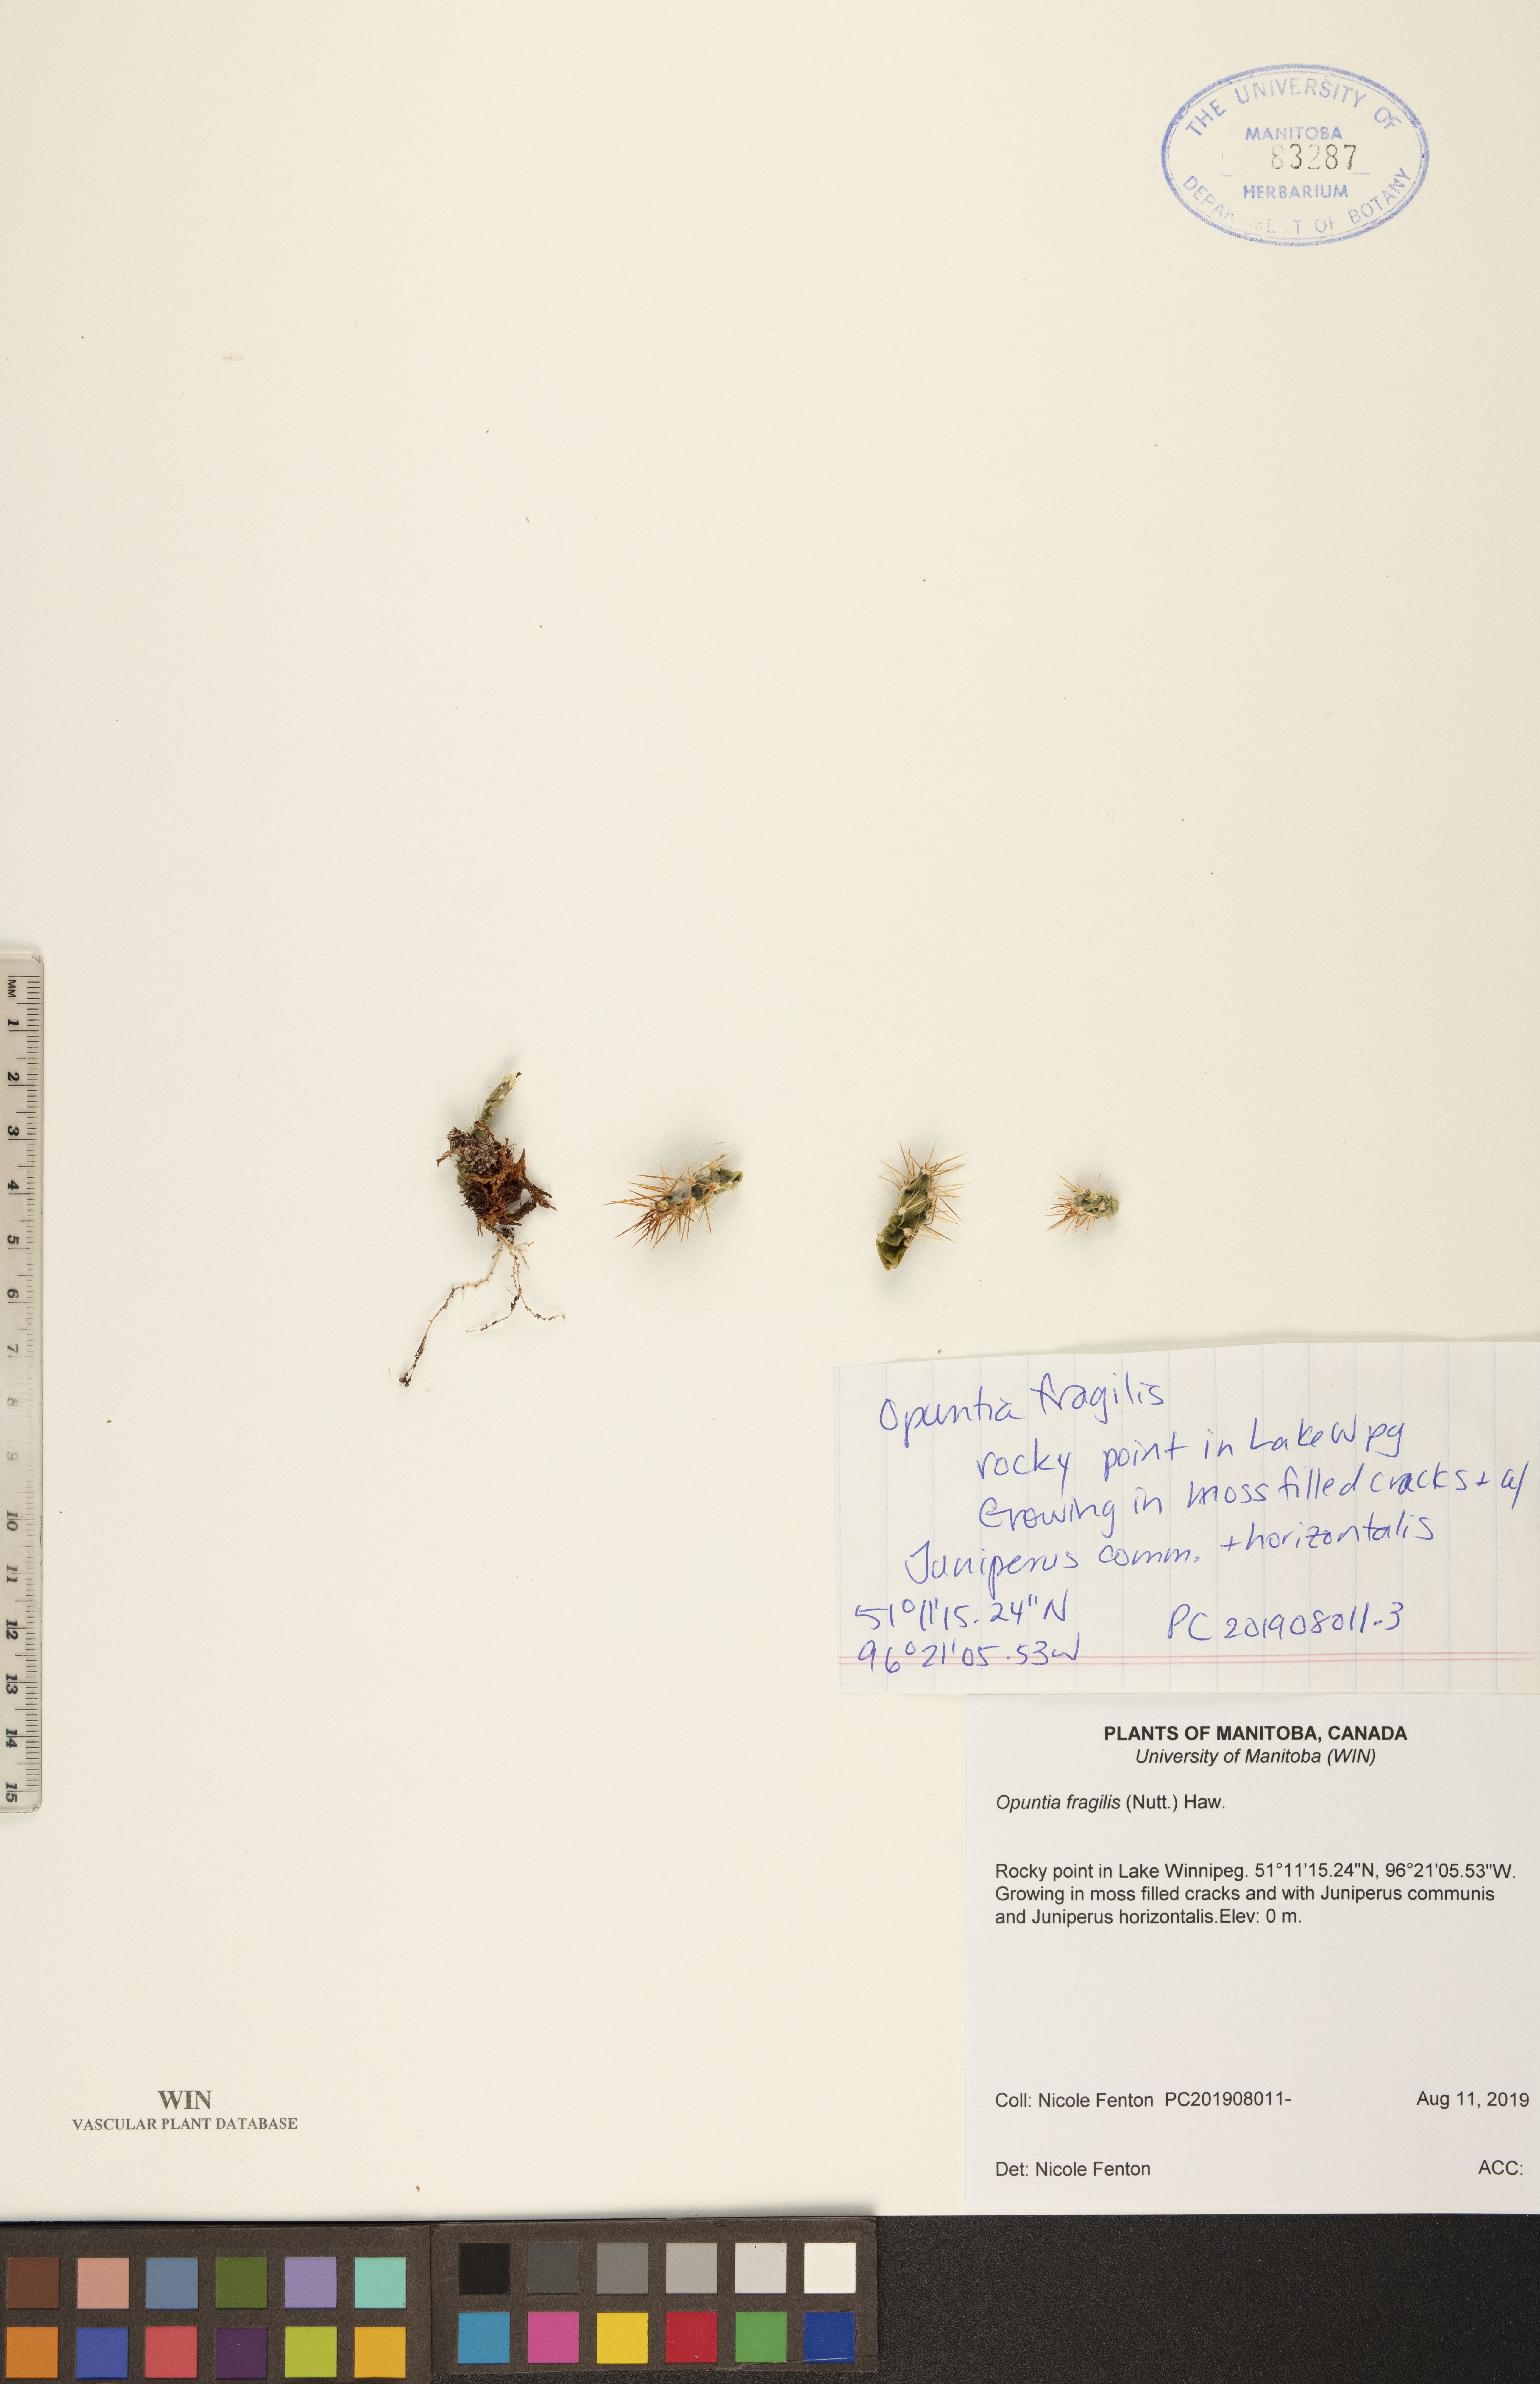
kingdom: Plantae
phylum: Tracheophyta
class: Magnoliopsida
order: Caryophyllales
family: Cactaceae
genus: Opuntia
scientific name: Opuntia fragilis
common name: Brittle cactus
